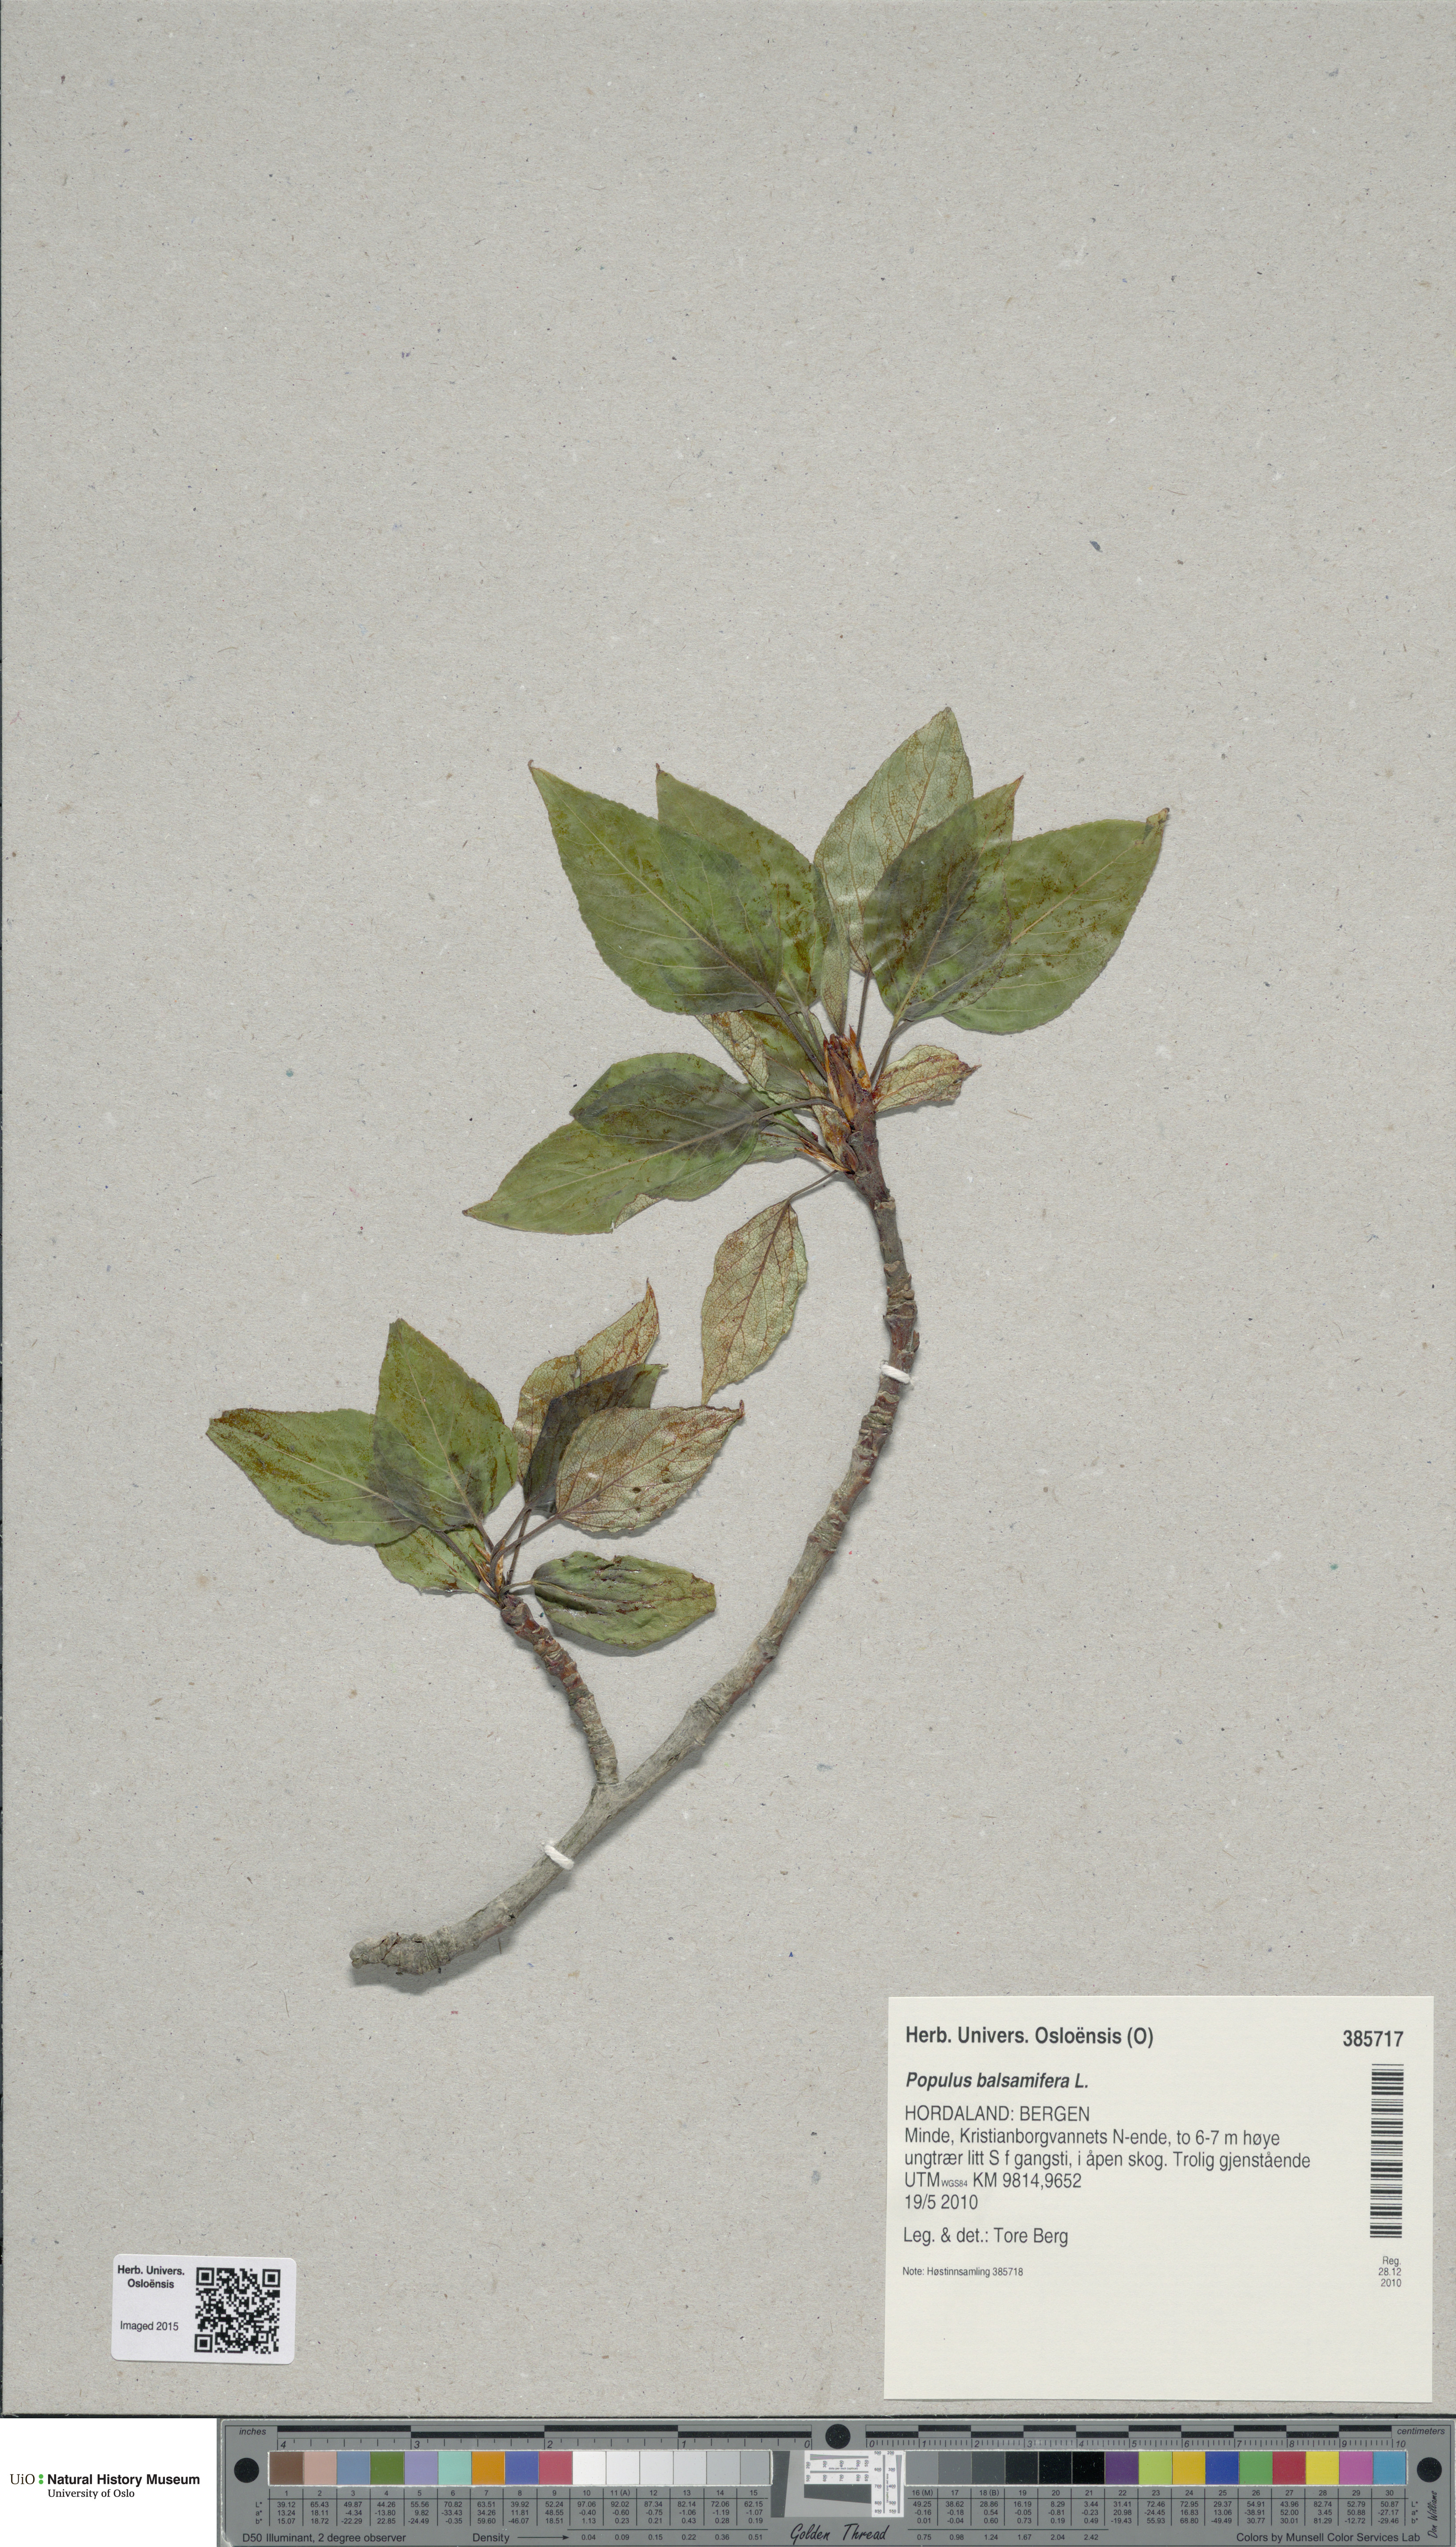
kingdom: Plantae
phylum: Tracheophyta
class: Magnoliopsida
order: Malpighiales
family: Salicaceae
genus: Populus
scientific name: Populus balsamifera
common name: Balsam poplar
